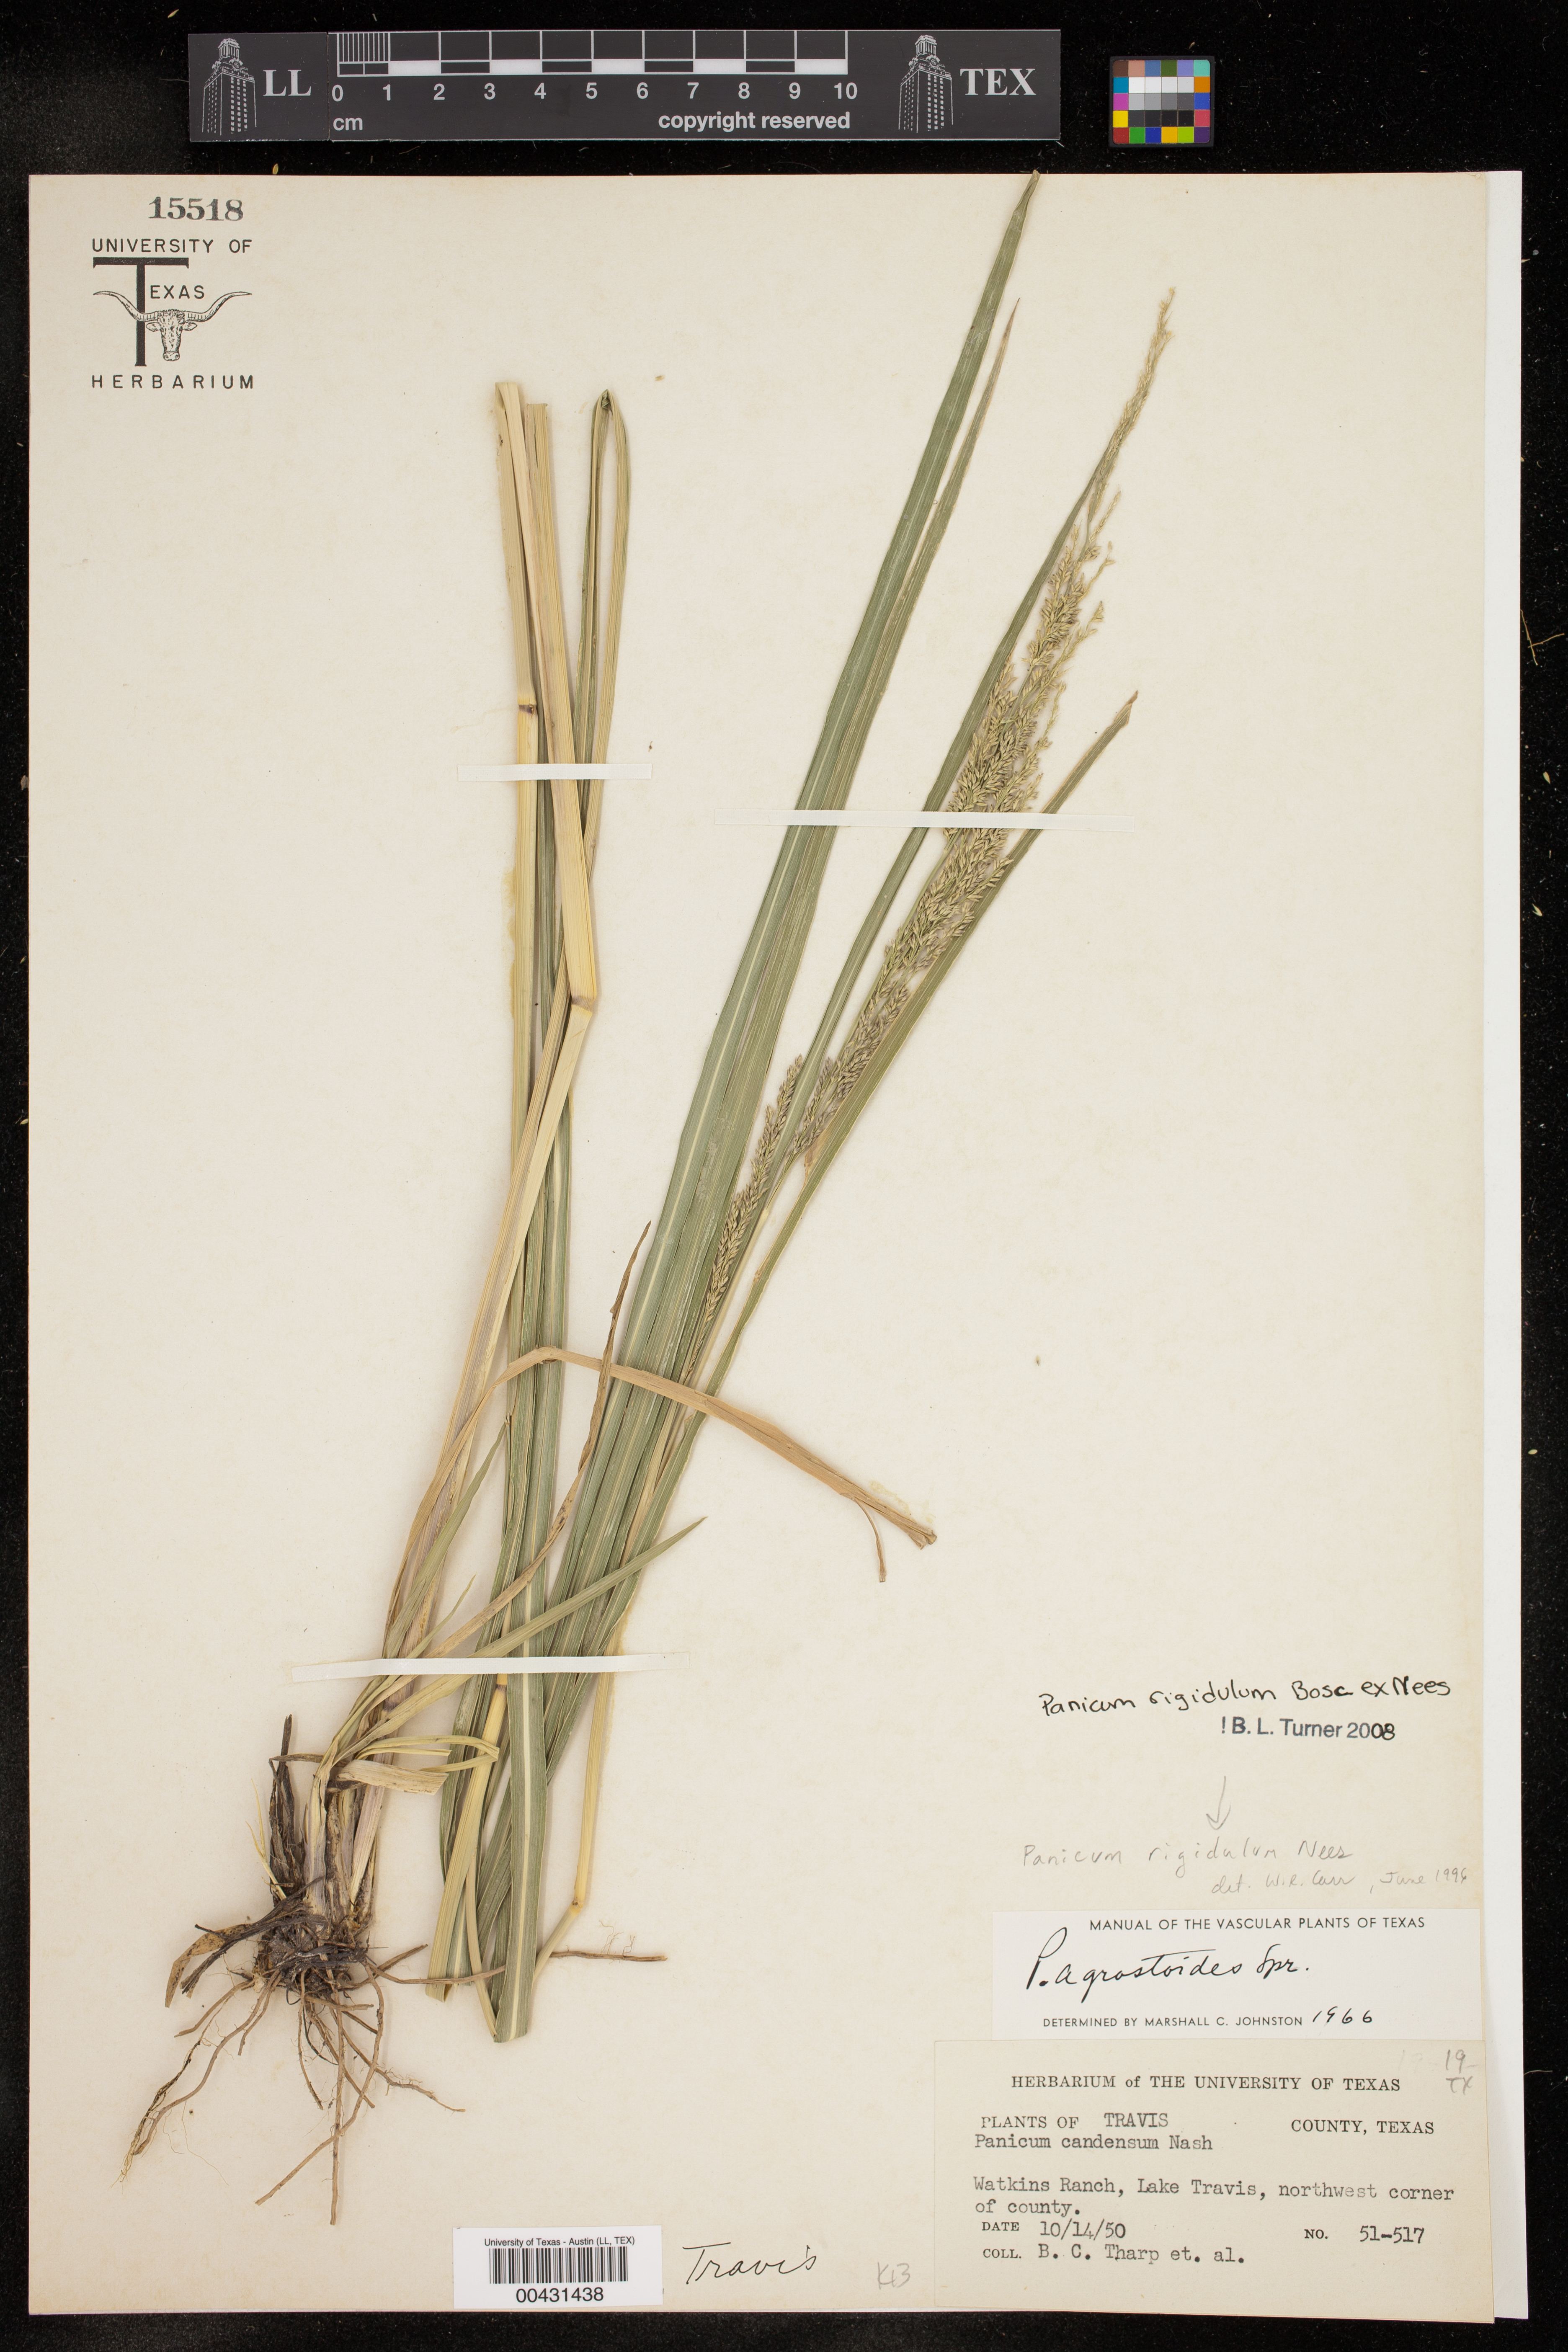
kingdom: Plantae
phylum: Tracheophyta
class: Liliopsida
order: Poales
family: Poaceae
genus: Coleataenia
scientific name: Coleataenia rigidula
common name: Redtop panicgrass
